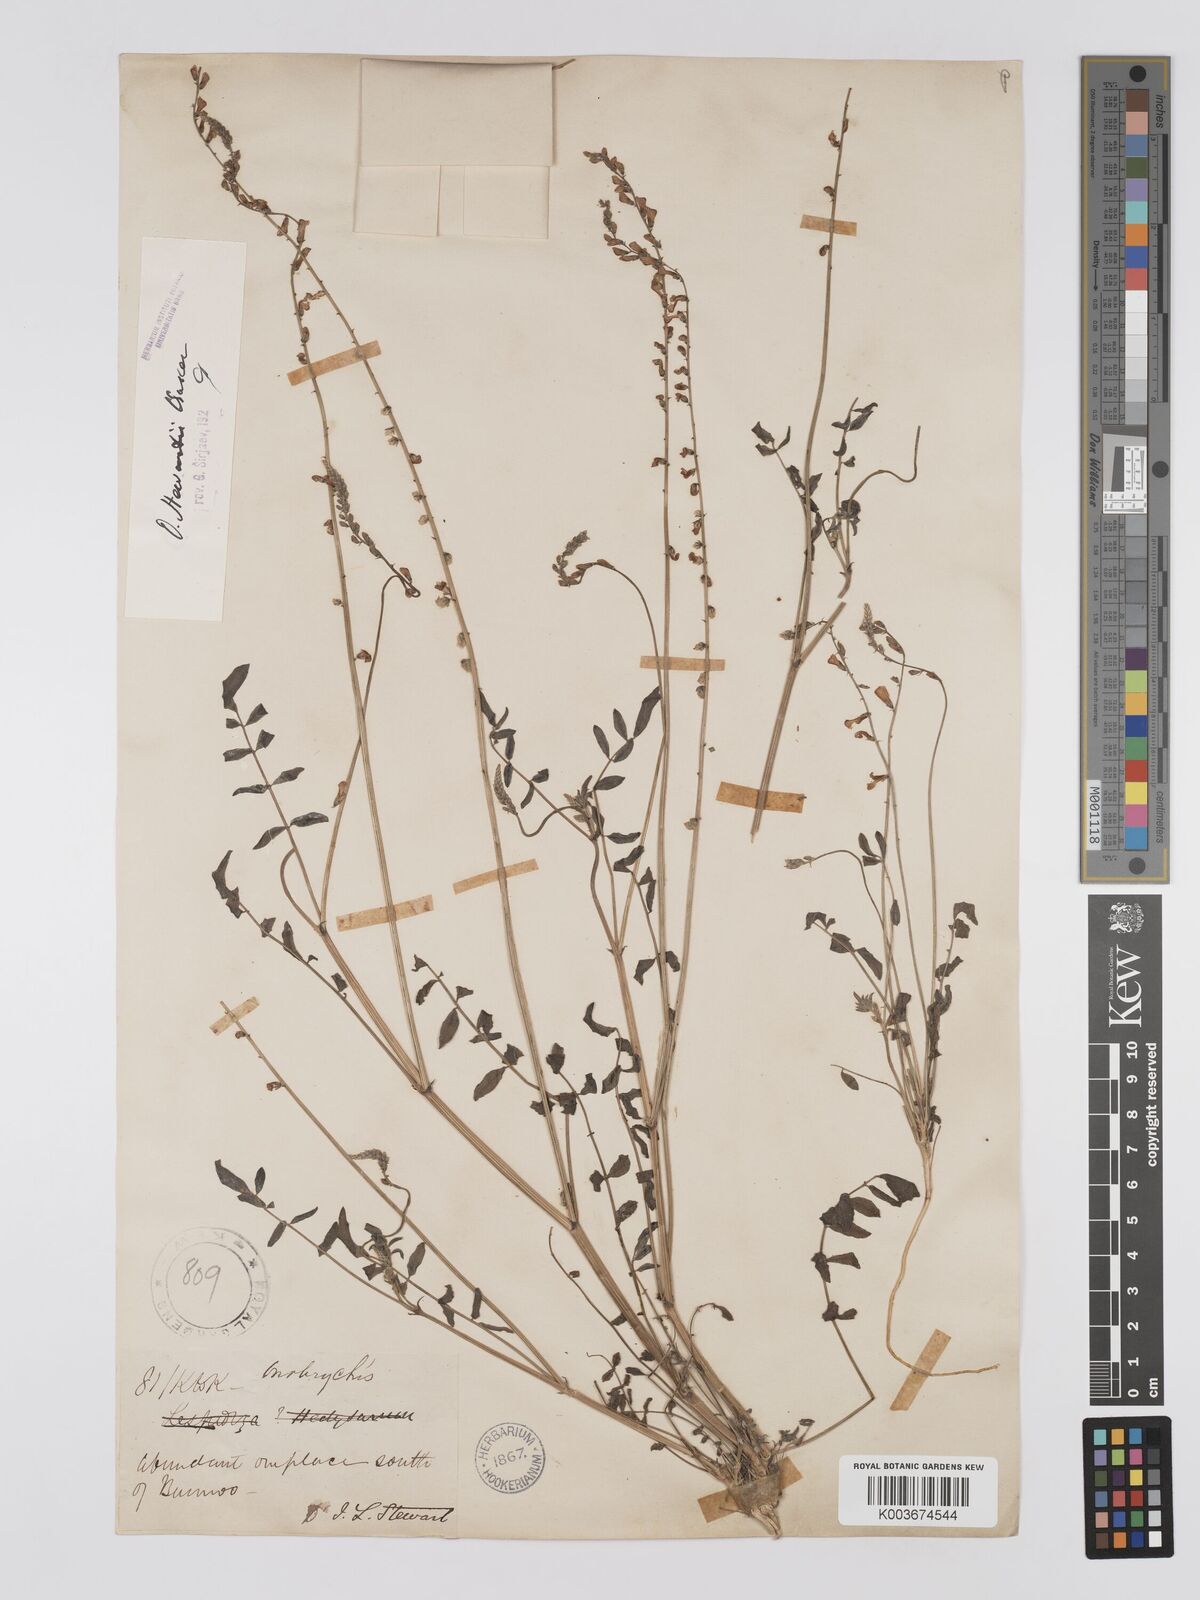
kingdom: Plantae
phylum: Tracheophyta
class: Magnoliopsida
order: Fabales
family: Fabaceae
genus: Onobrychis
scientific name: Onobrychis stewartii
